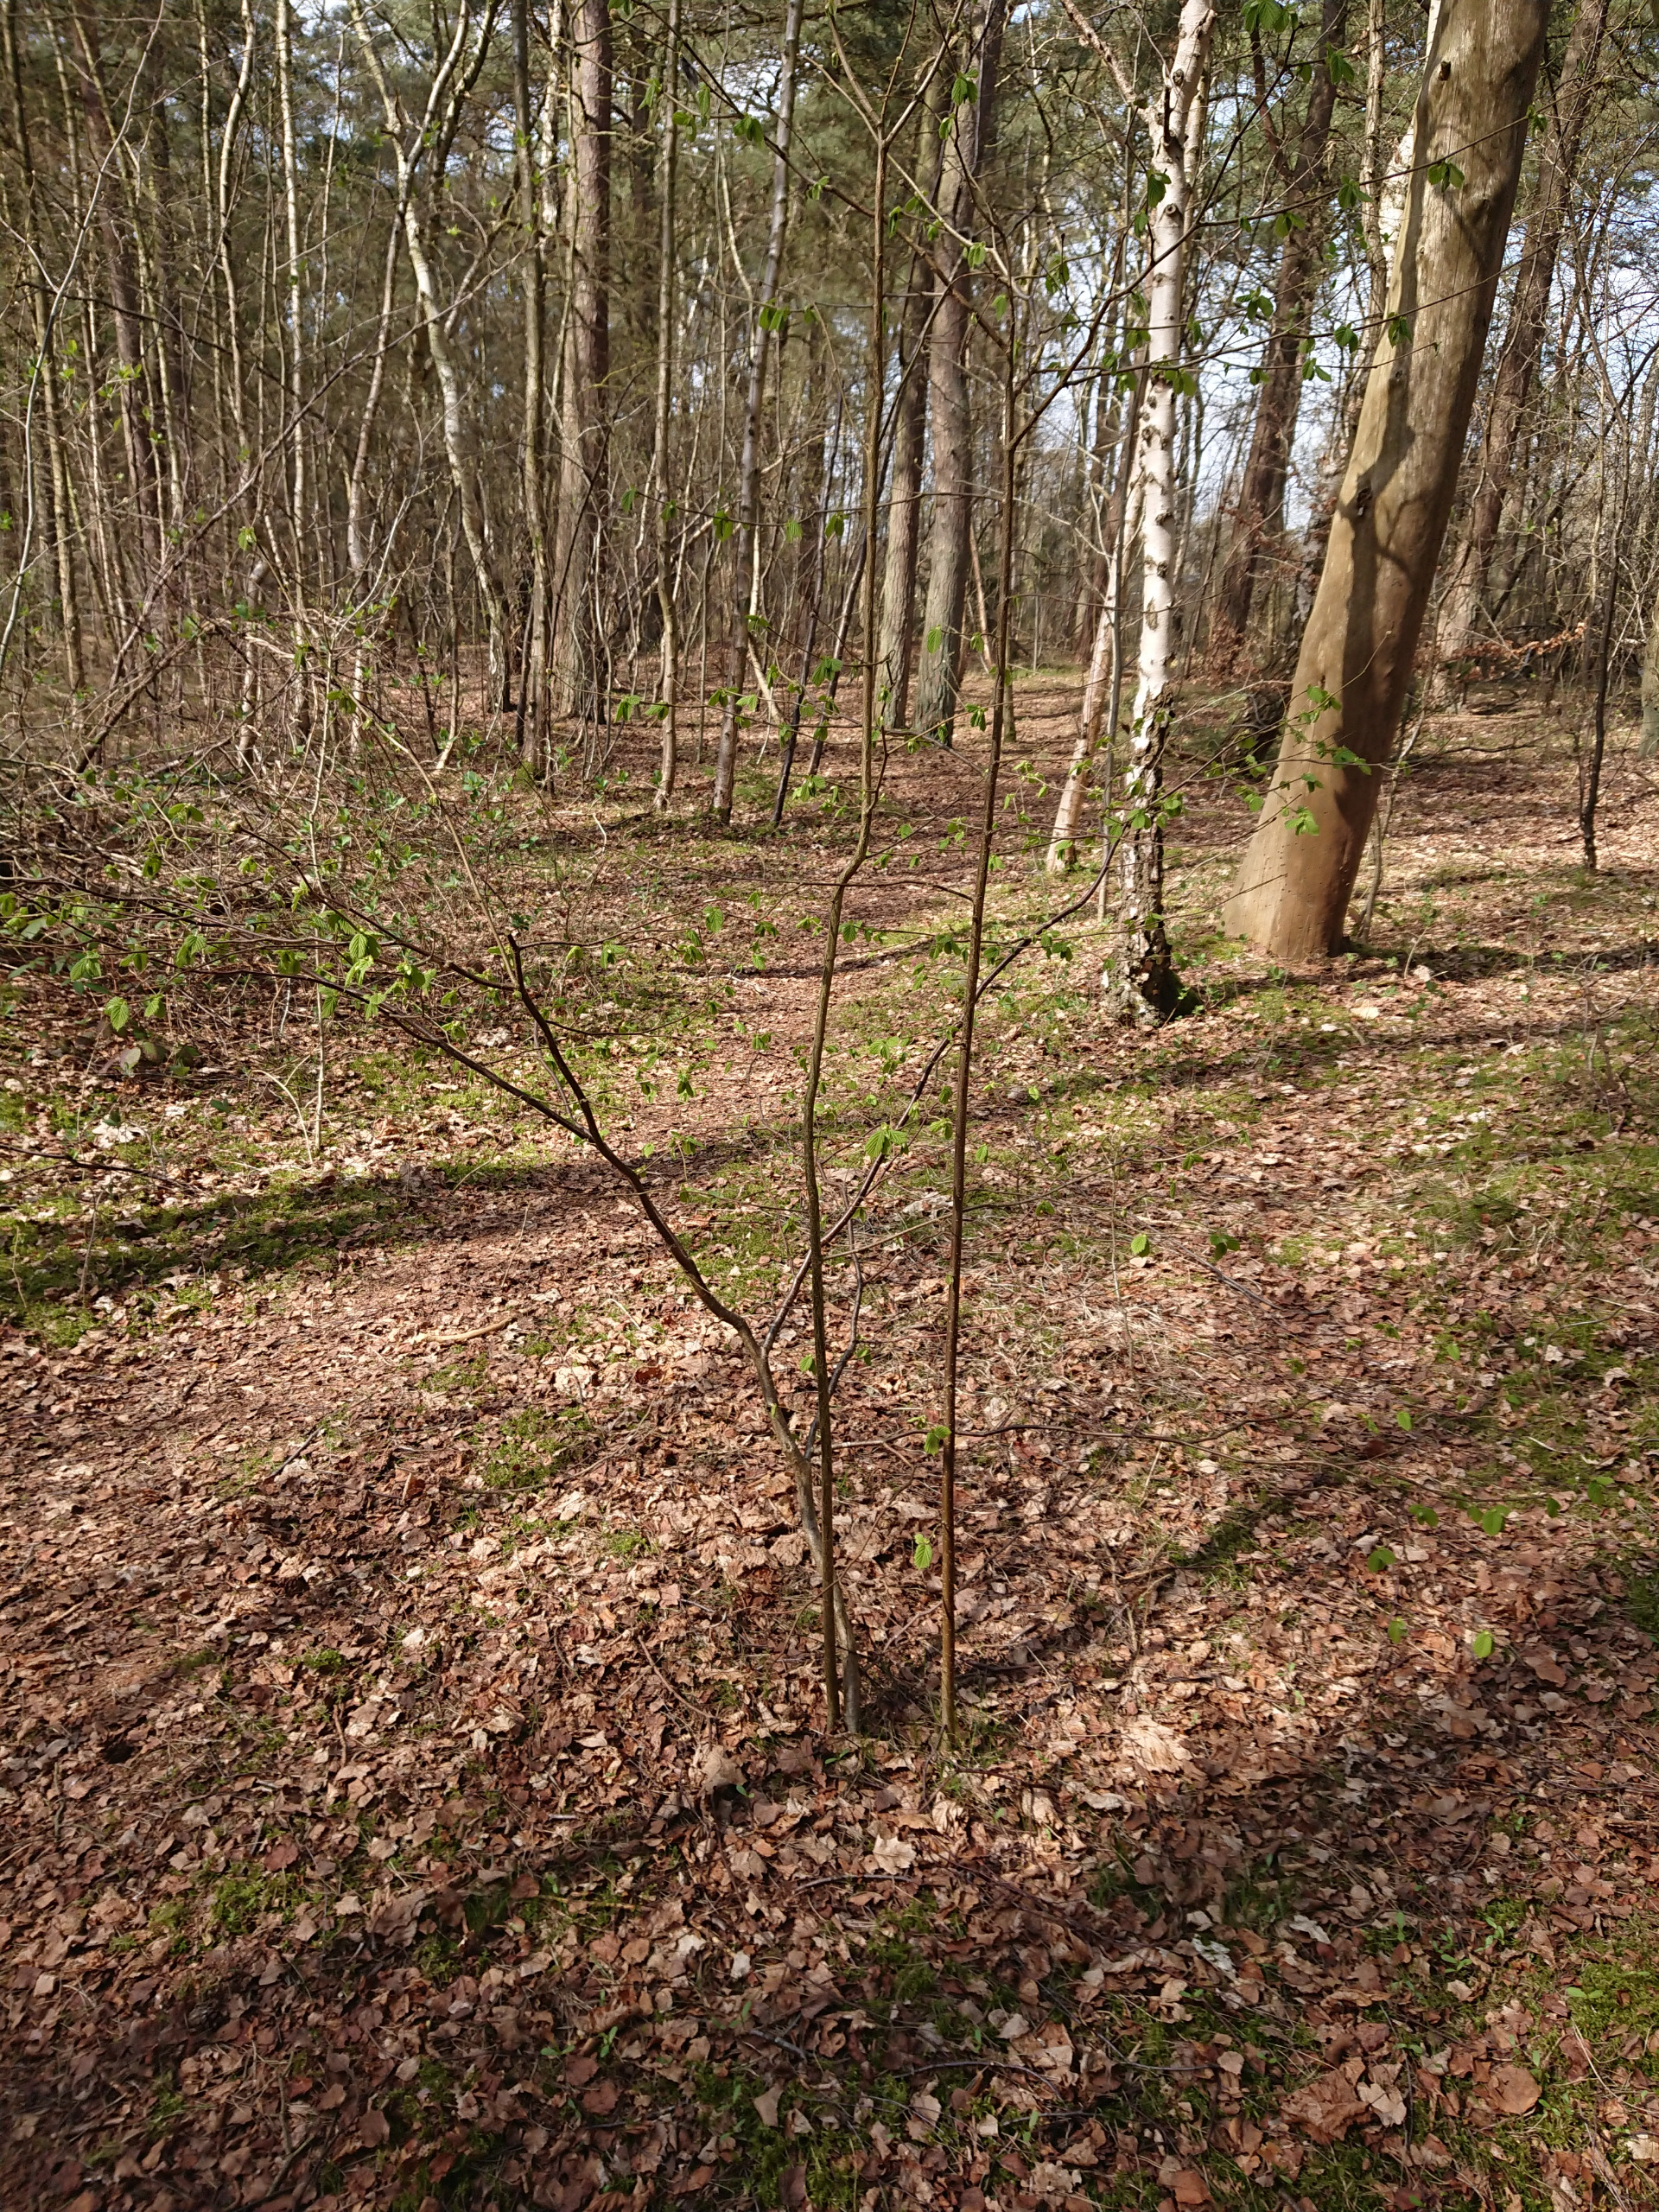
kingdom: Plantae
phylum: Tracheophyta
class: Magnoliopsida
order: Fagales
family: Betulaceae
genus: Corylus
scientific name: Corylus avellana
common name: Hassel
